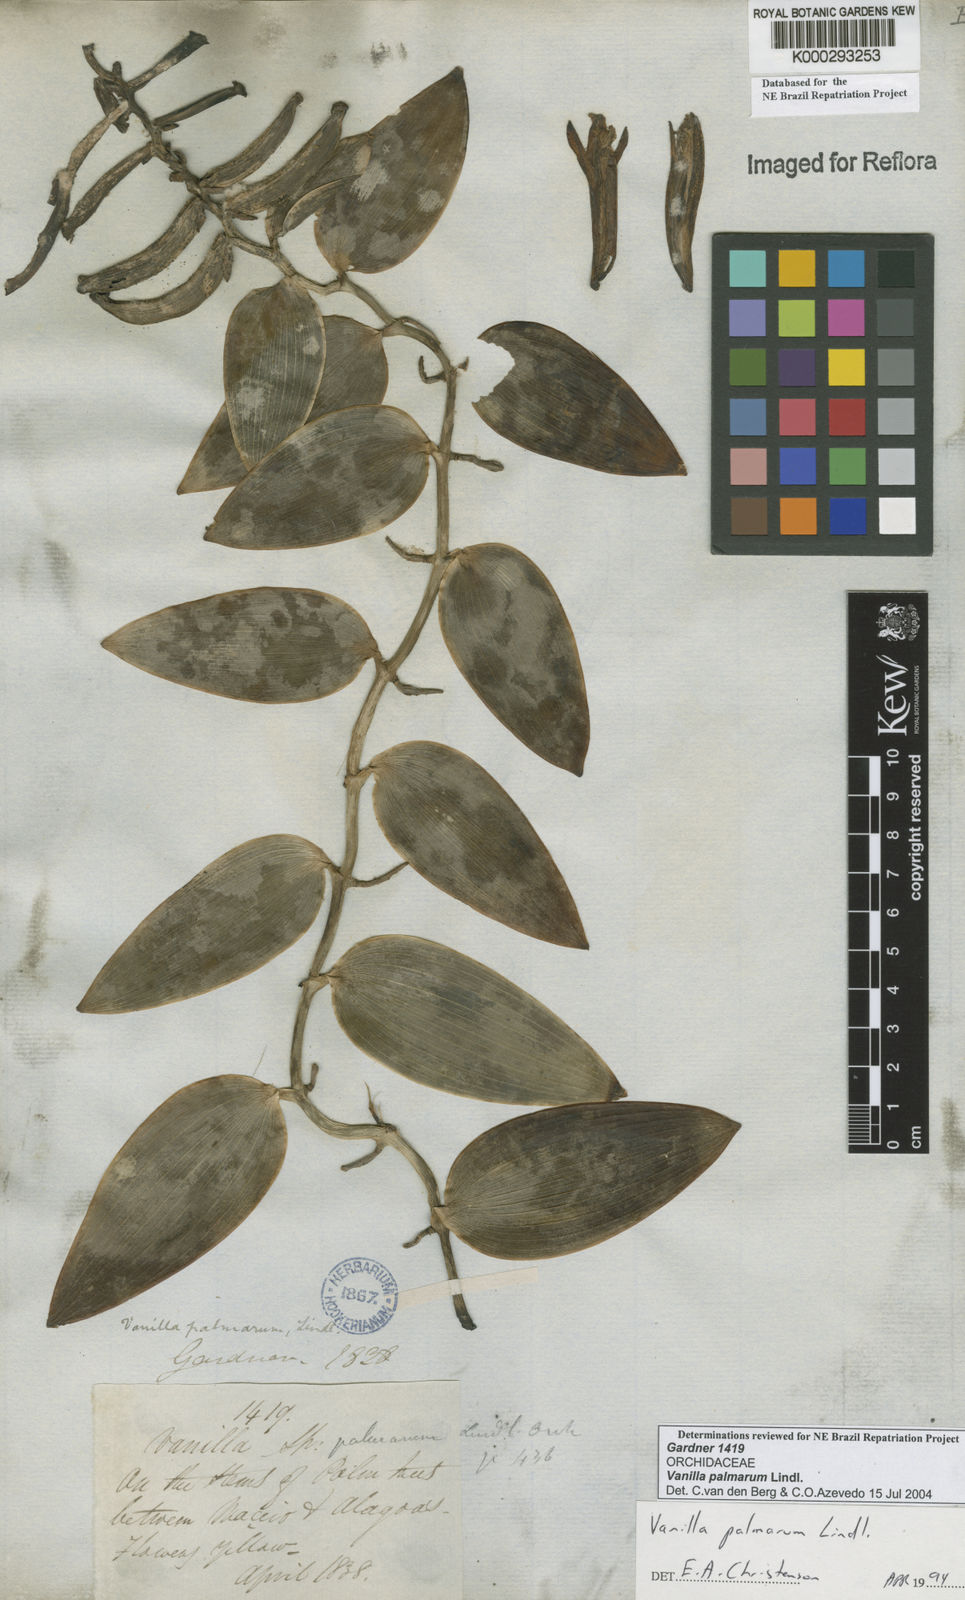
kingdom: Plantae
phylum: Tracheophyta
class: Liliopsida
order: Asparagales
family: Orchidaceae
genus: Vanilla
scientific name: Vanilla palmarum
